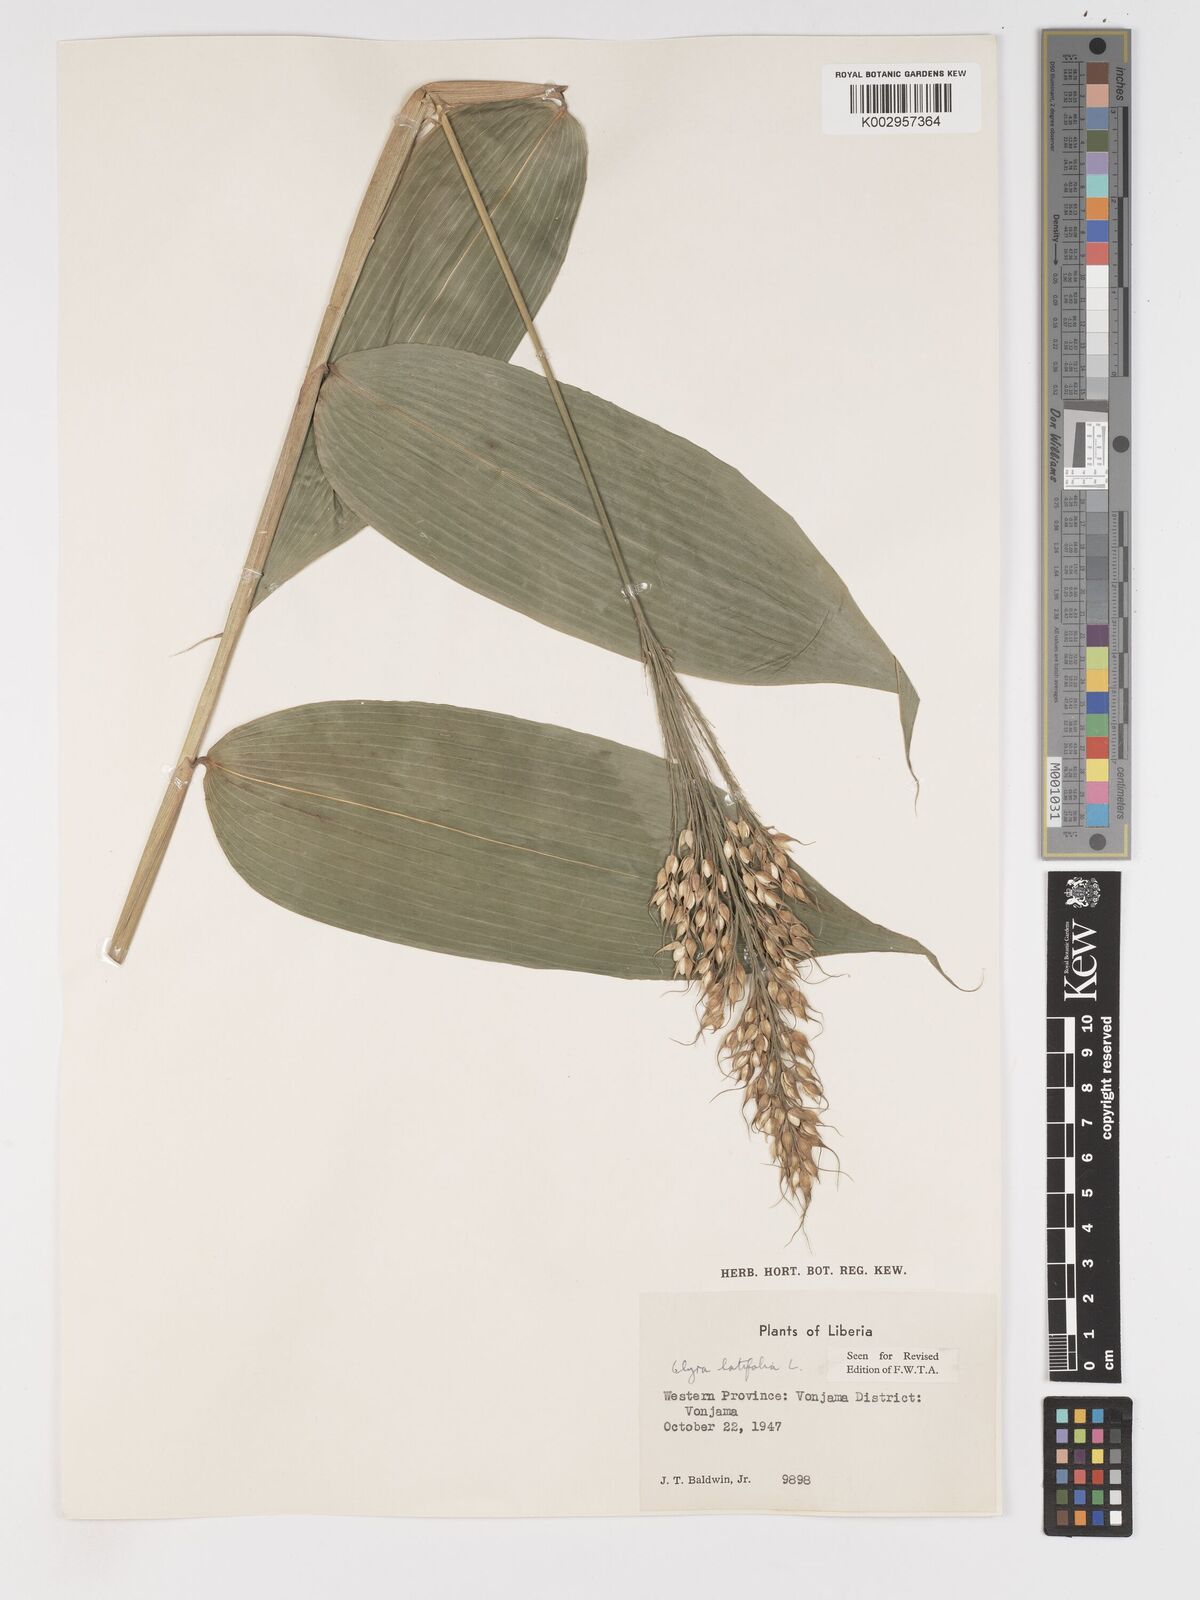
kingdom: Plantae
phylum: Tracheophyta
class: Liliopsida
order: Poales
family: Poaceae
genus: Olyra
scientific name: Olyra latifolia
